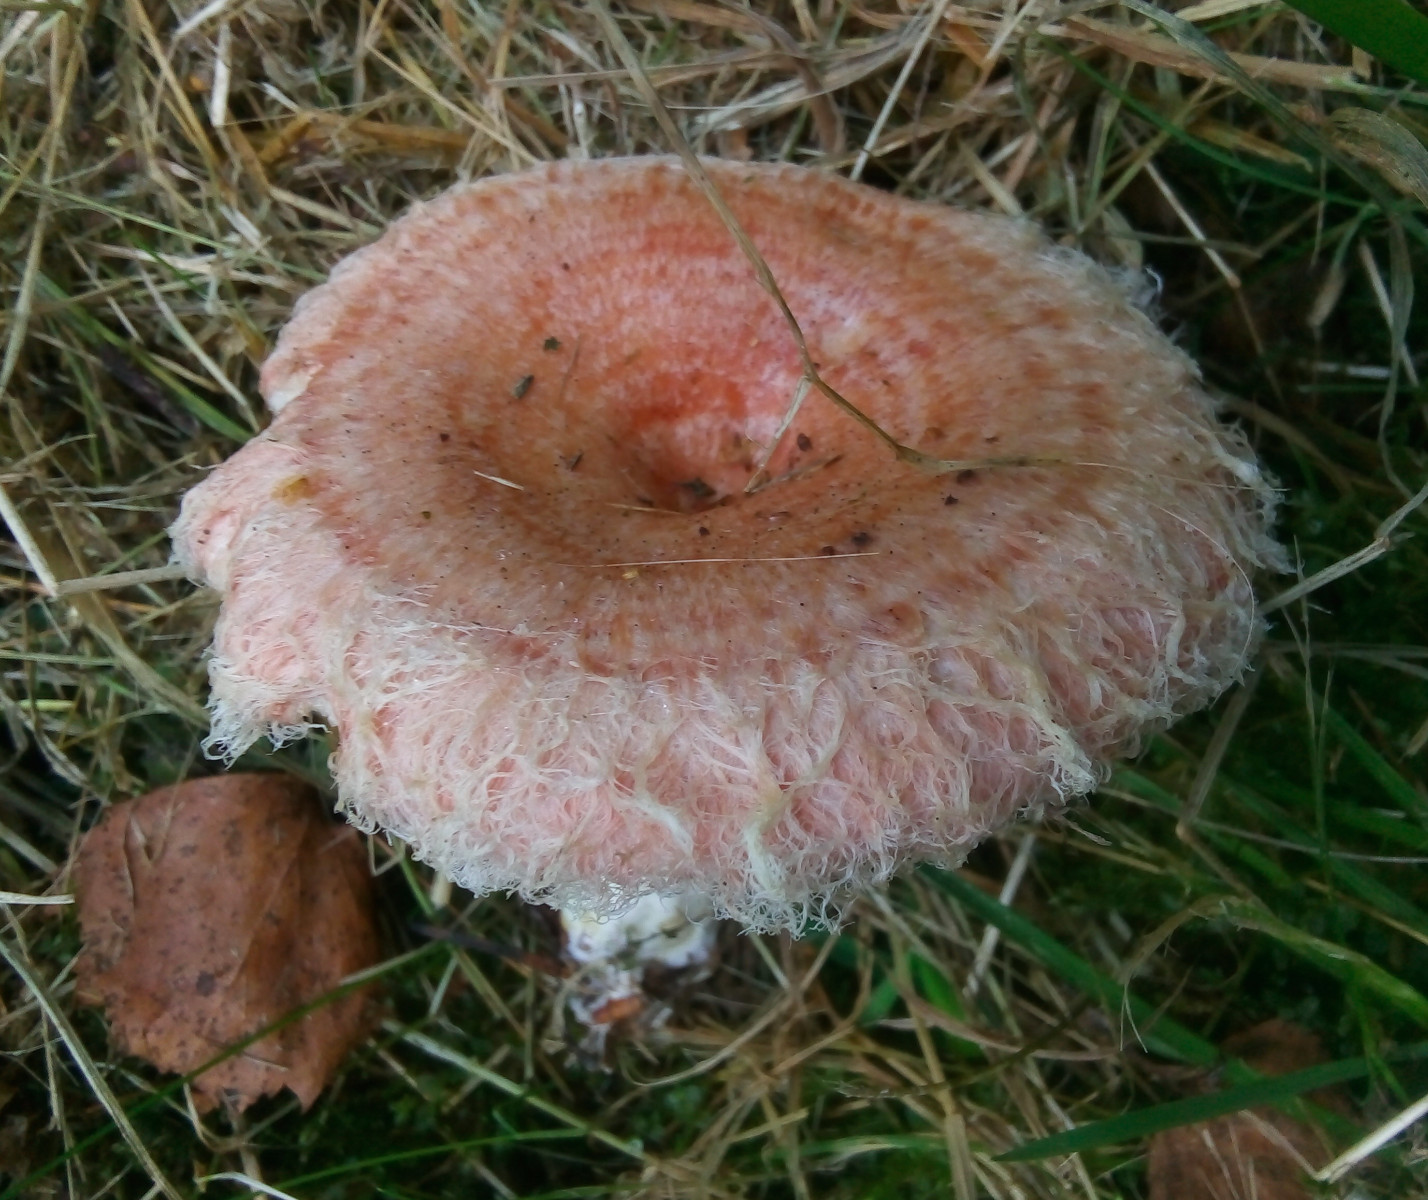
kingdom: Fungi
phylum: Basidiomycota
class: Agaricomycetes
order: Russulales
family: Russulaceae
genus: Lactarius
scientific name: Lactarius torminosus
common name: skægget mælkehat
